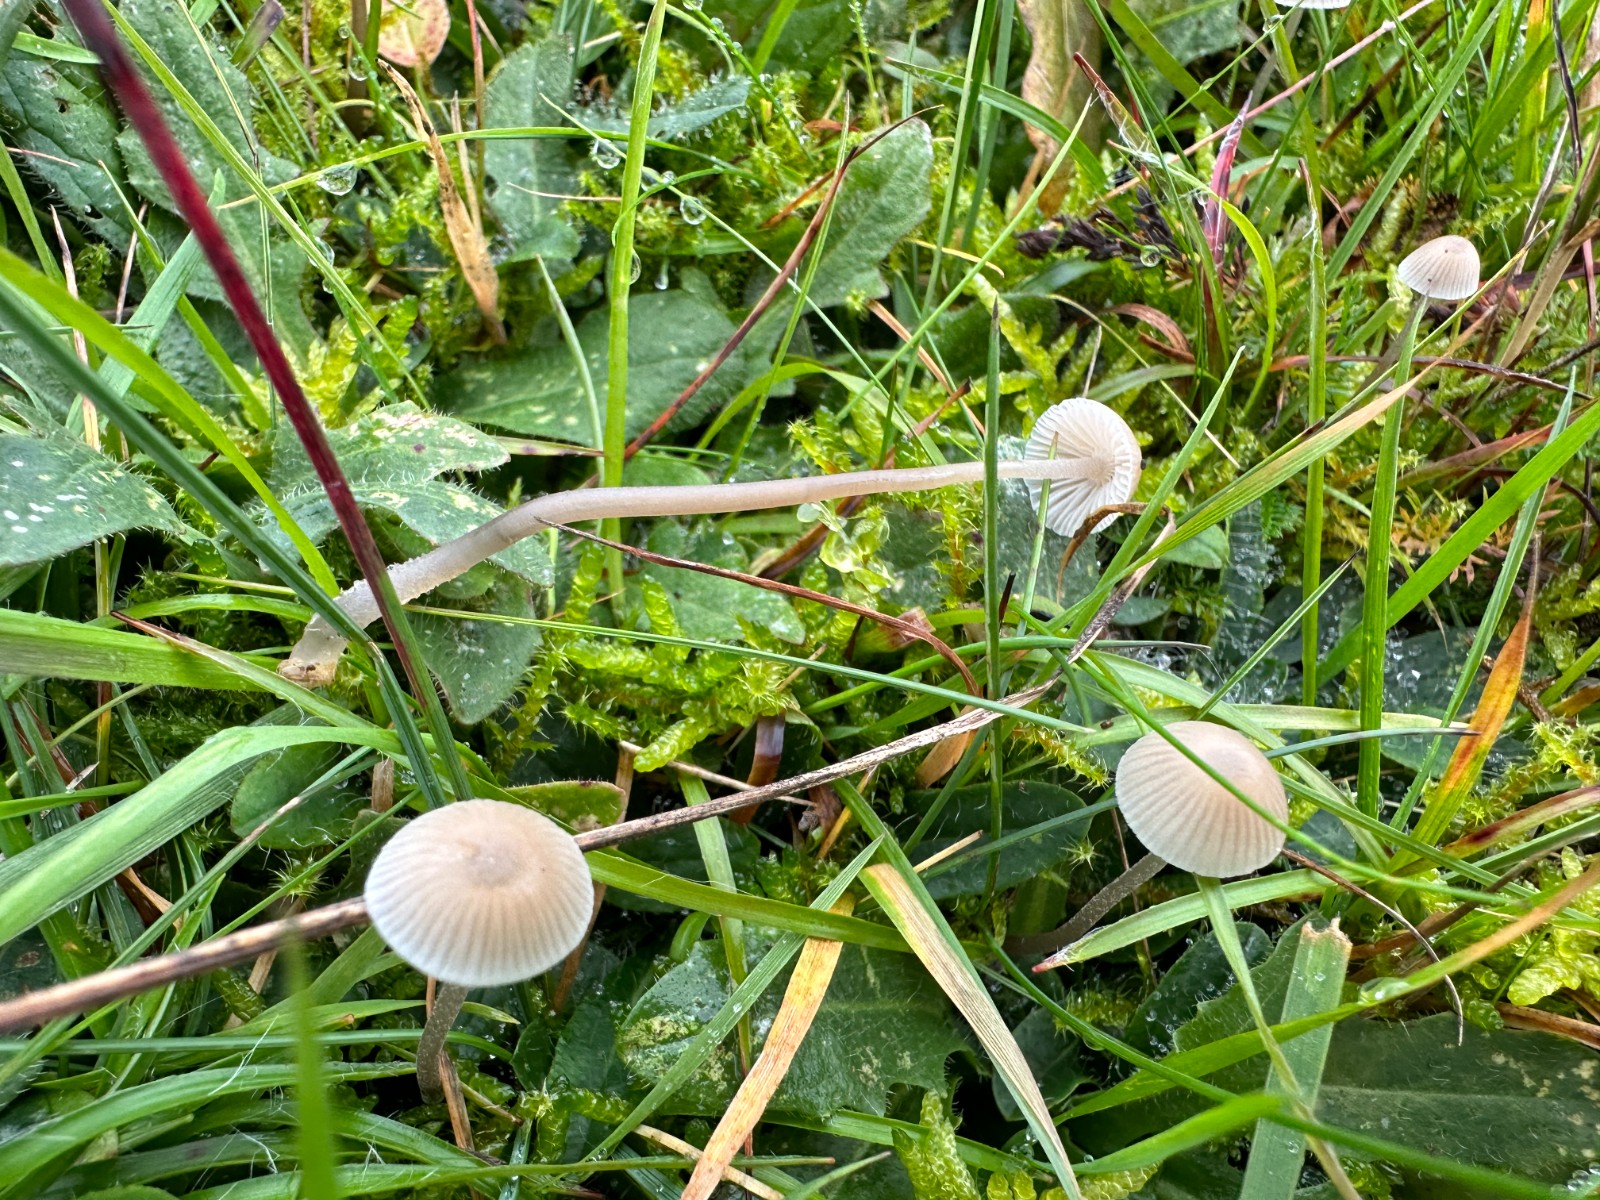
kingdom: Fungi
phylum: Basidiomycota
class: Agaricomycetes
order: Agaricales
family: Mycenaceae
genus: Mycena
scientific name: Mycena leptocephala
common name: klor-huesvamp
